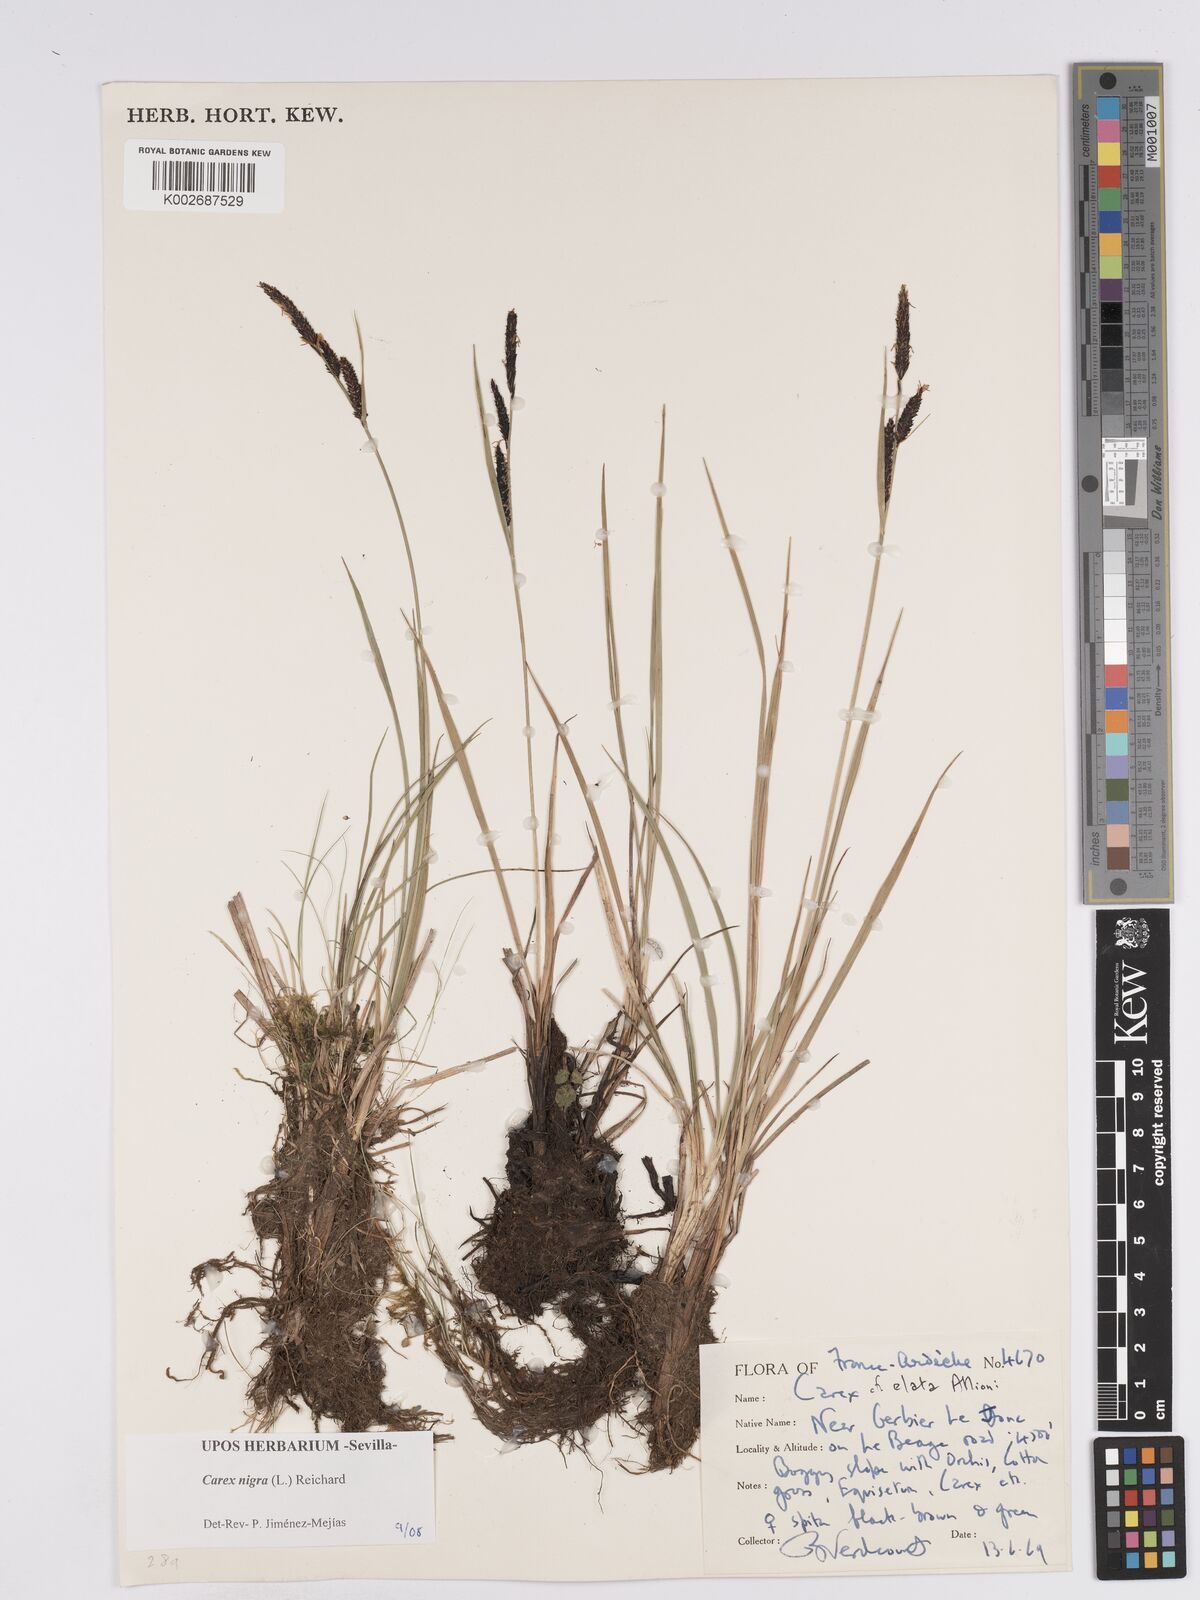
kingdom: Plantae
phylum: Tracheophyta
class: Liliopsida
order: Poales
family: Cyperaceae
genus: Carex
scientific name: Carex nigra
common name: Common sedge
